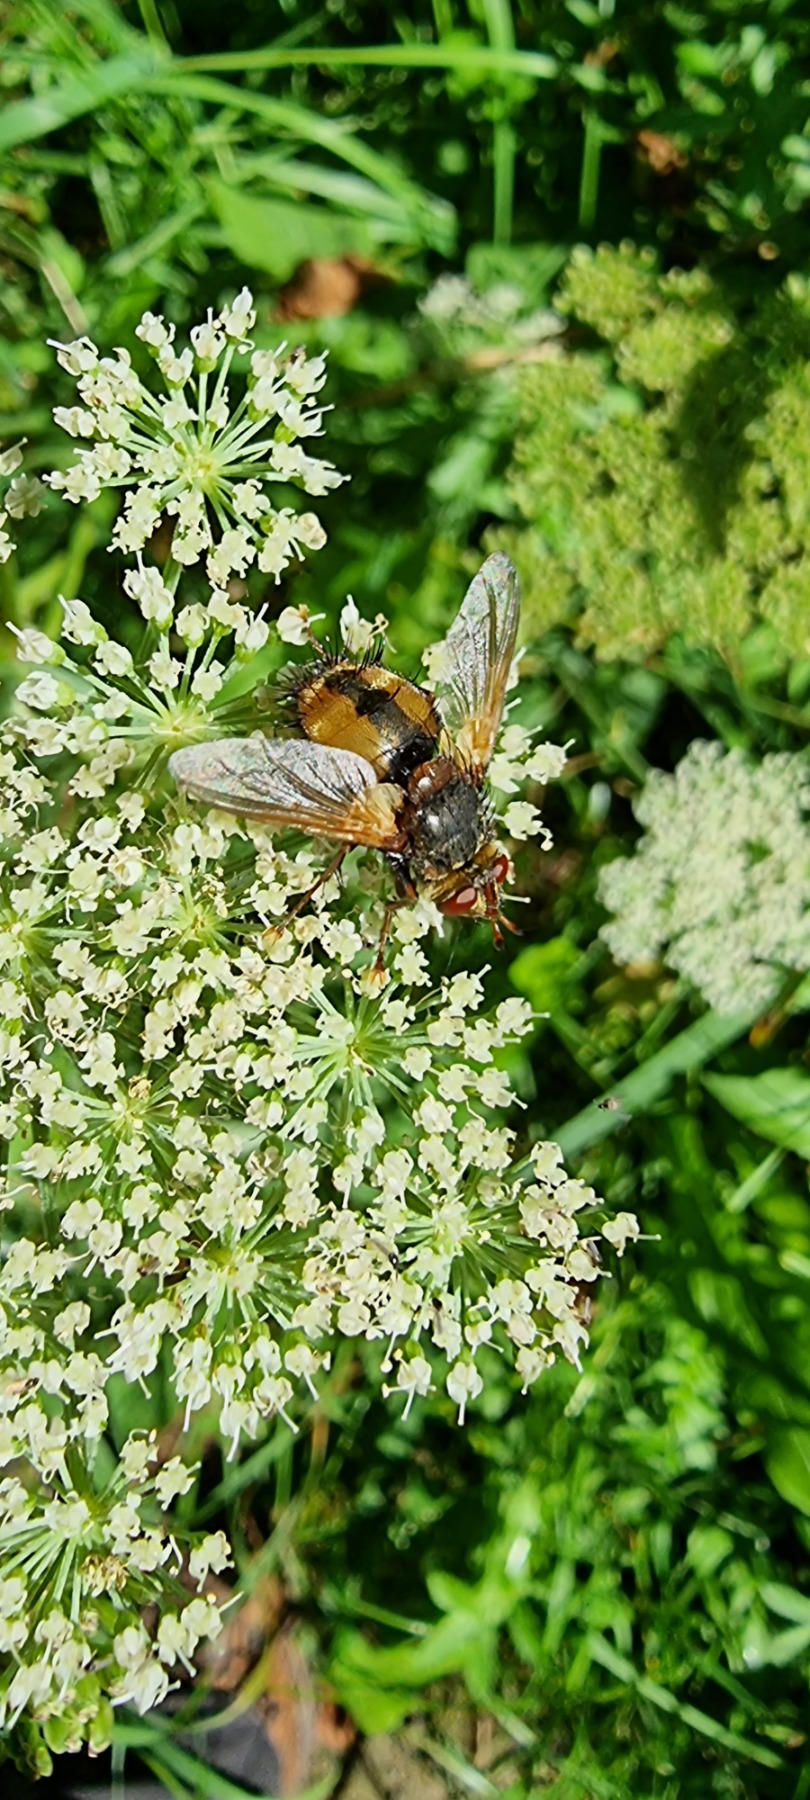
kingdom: Animalia
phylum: Arthropoda
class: Insecta
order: Diptera
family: Tachinidae
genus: Tachina
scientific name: Tachina fera
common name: Mellemfluen oskar
